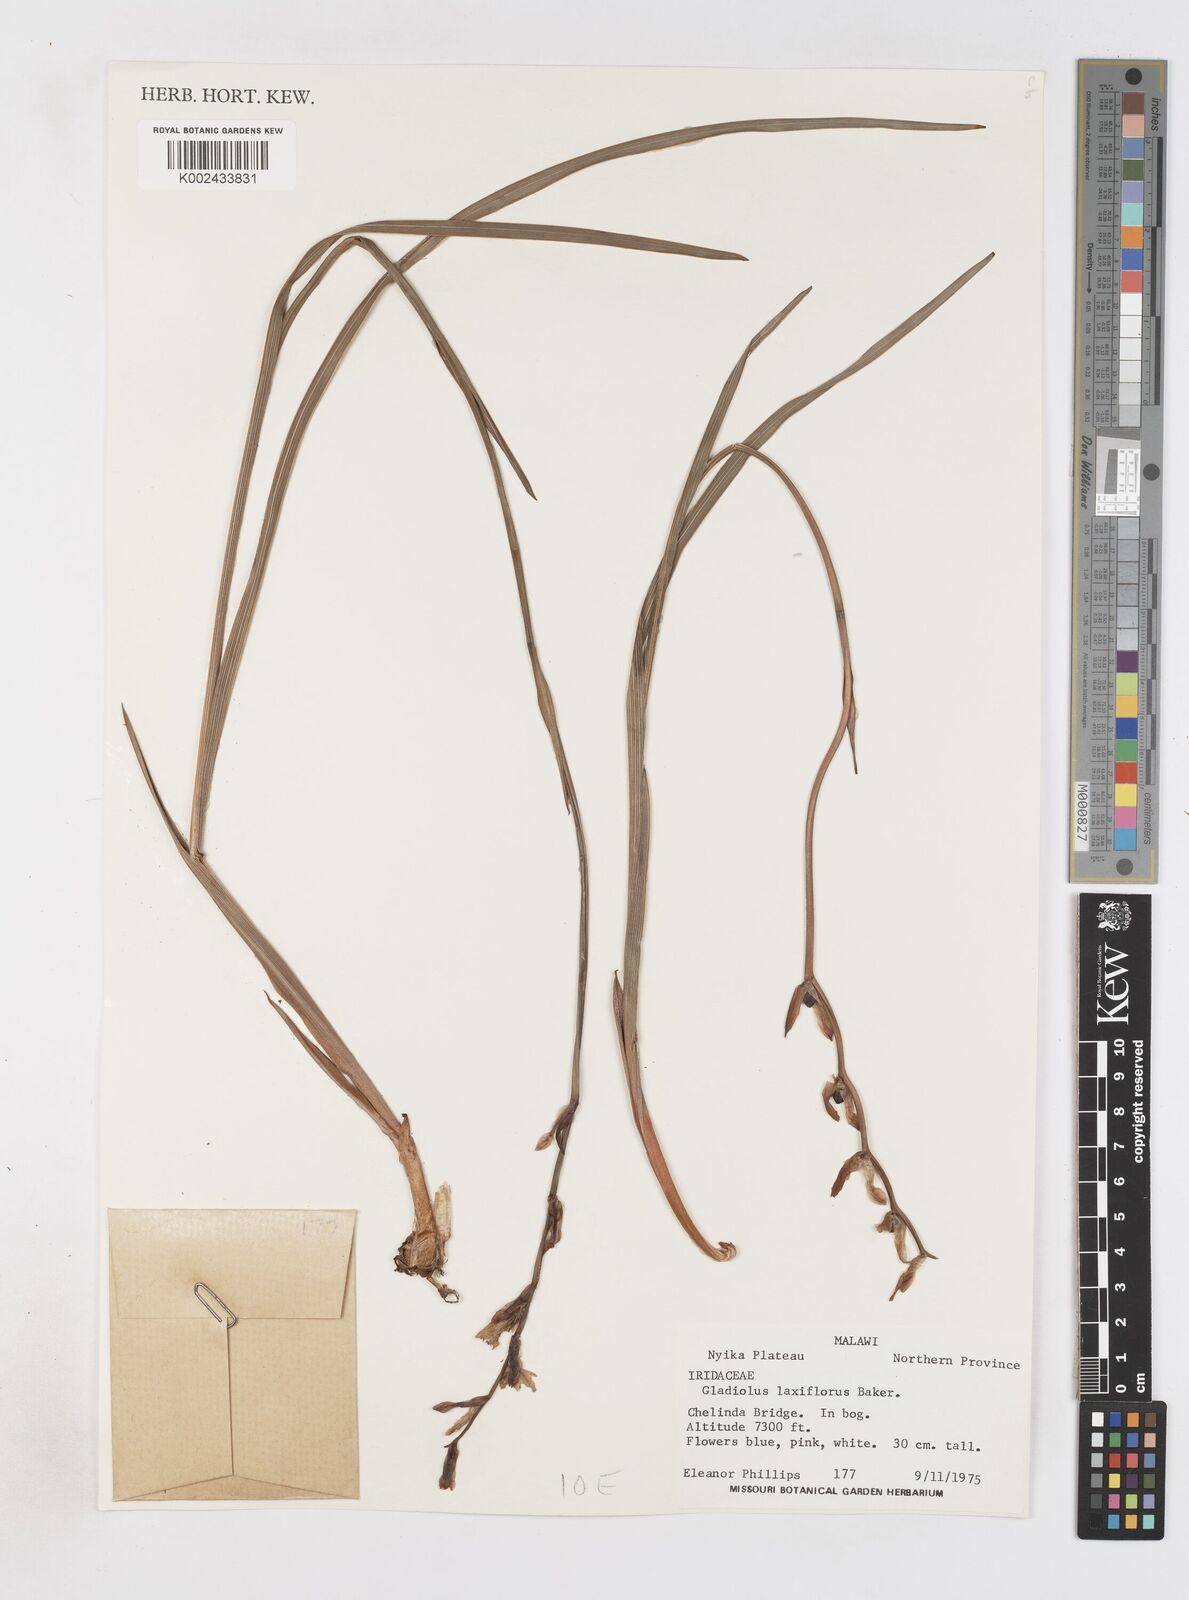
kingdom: Plantae
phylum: Tracheophyta
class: Liliopsida
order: Asparagales
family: Iridaceae
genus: Gladiolus
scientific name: Gladiolus laxiflorus
